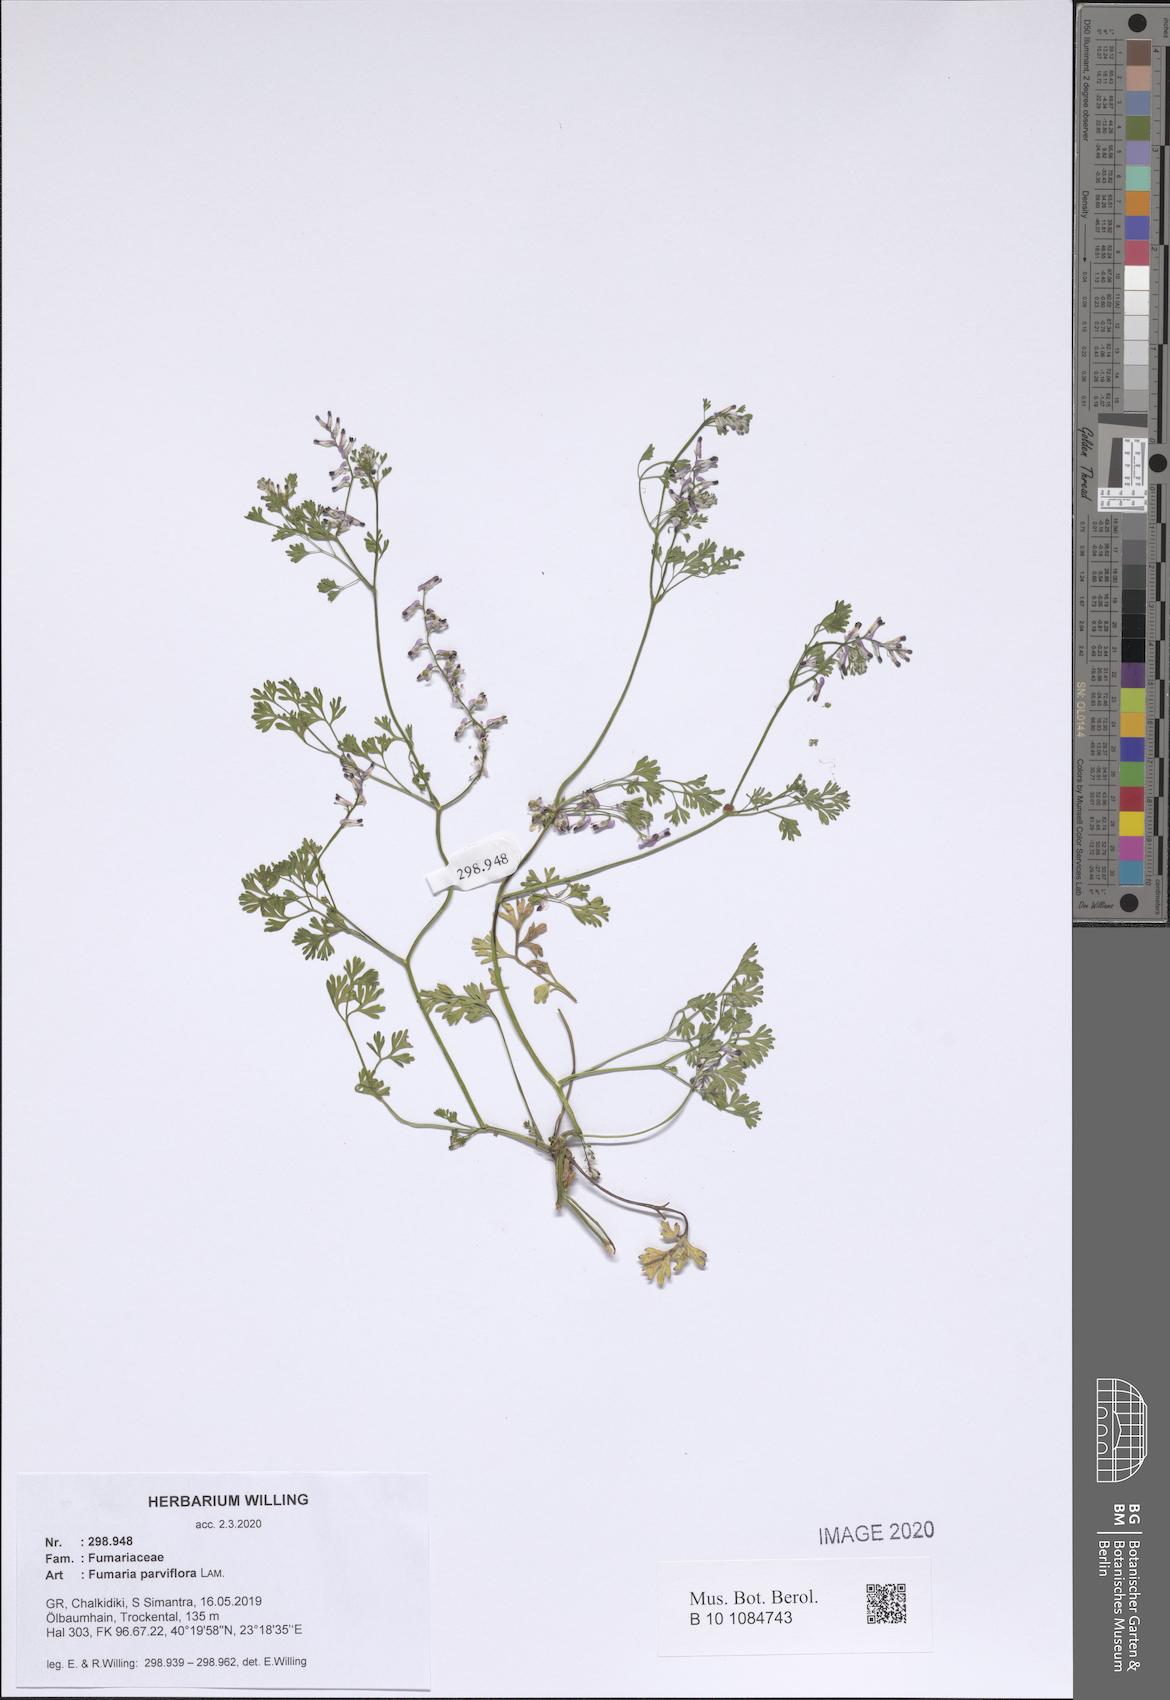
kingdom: Plantae
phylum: Tracheophyta
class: Magnoliopsida
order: Ranunculales
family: Papaveraceae
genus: Fumaria
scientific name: Fumaria parviflora
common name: Fine-leaved fumitory
